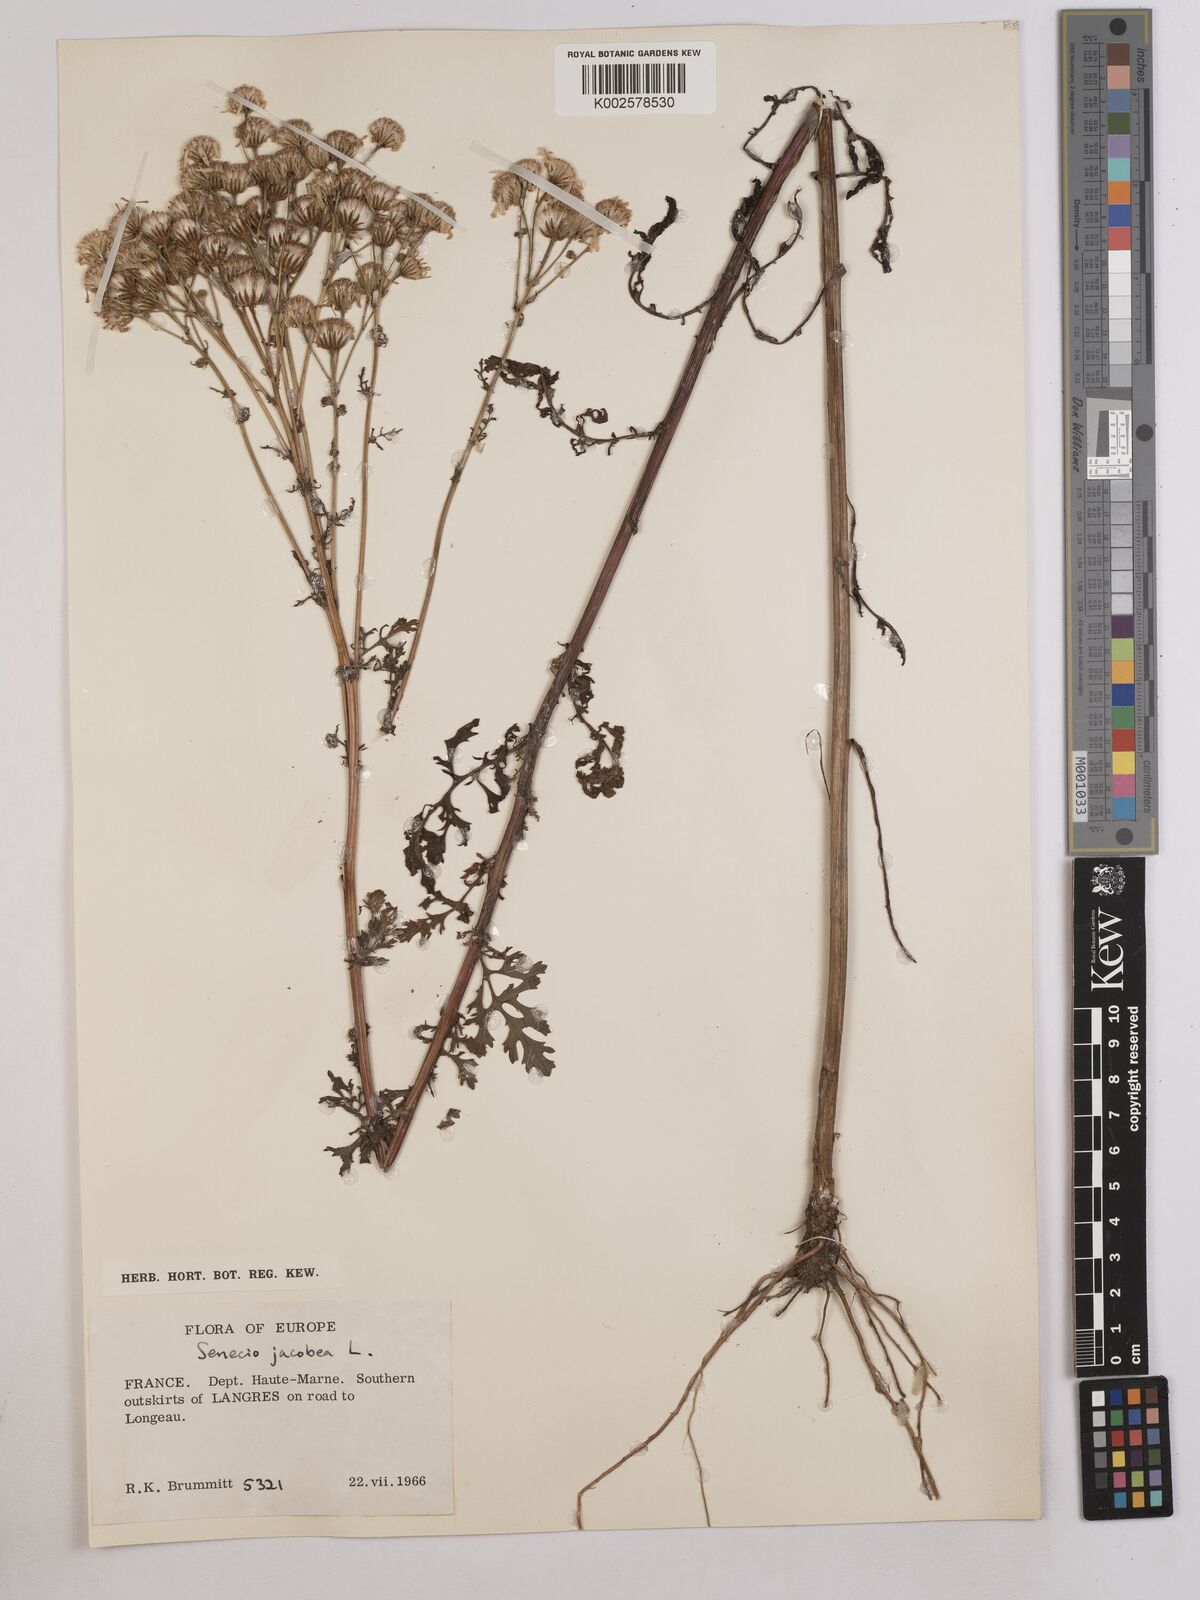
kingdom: Plantae
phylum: Tracheophyta
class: Magnoliopsida
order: Asterales
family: Asteraceae
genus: Jacobaea
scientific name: Jacobaea vulgaris
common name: Stinking willie
